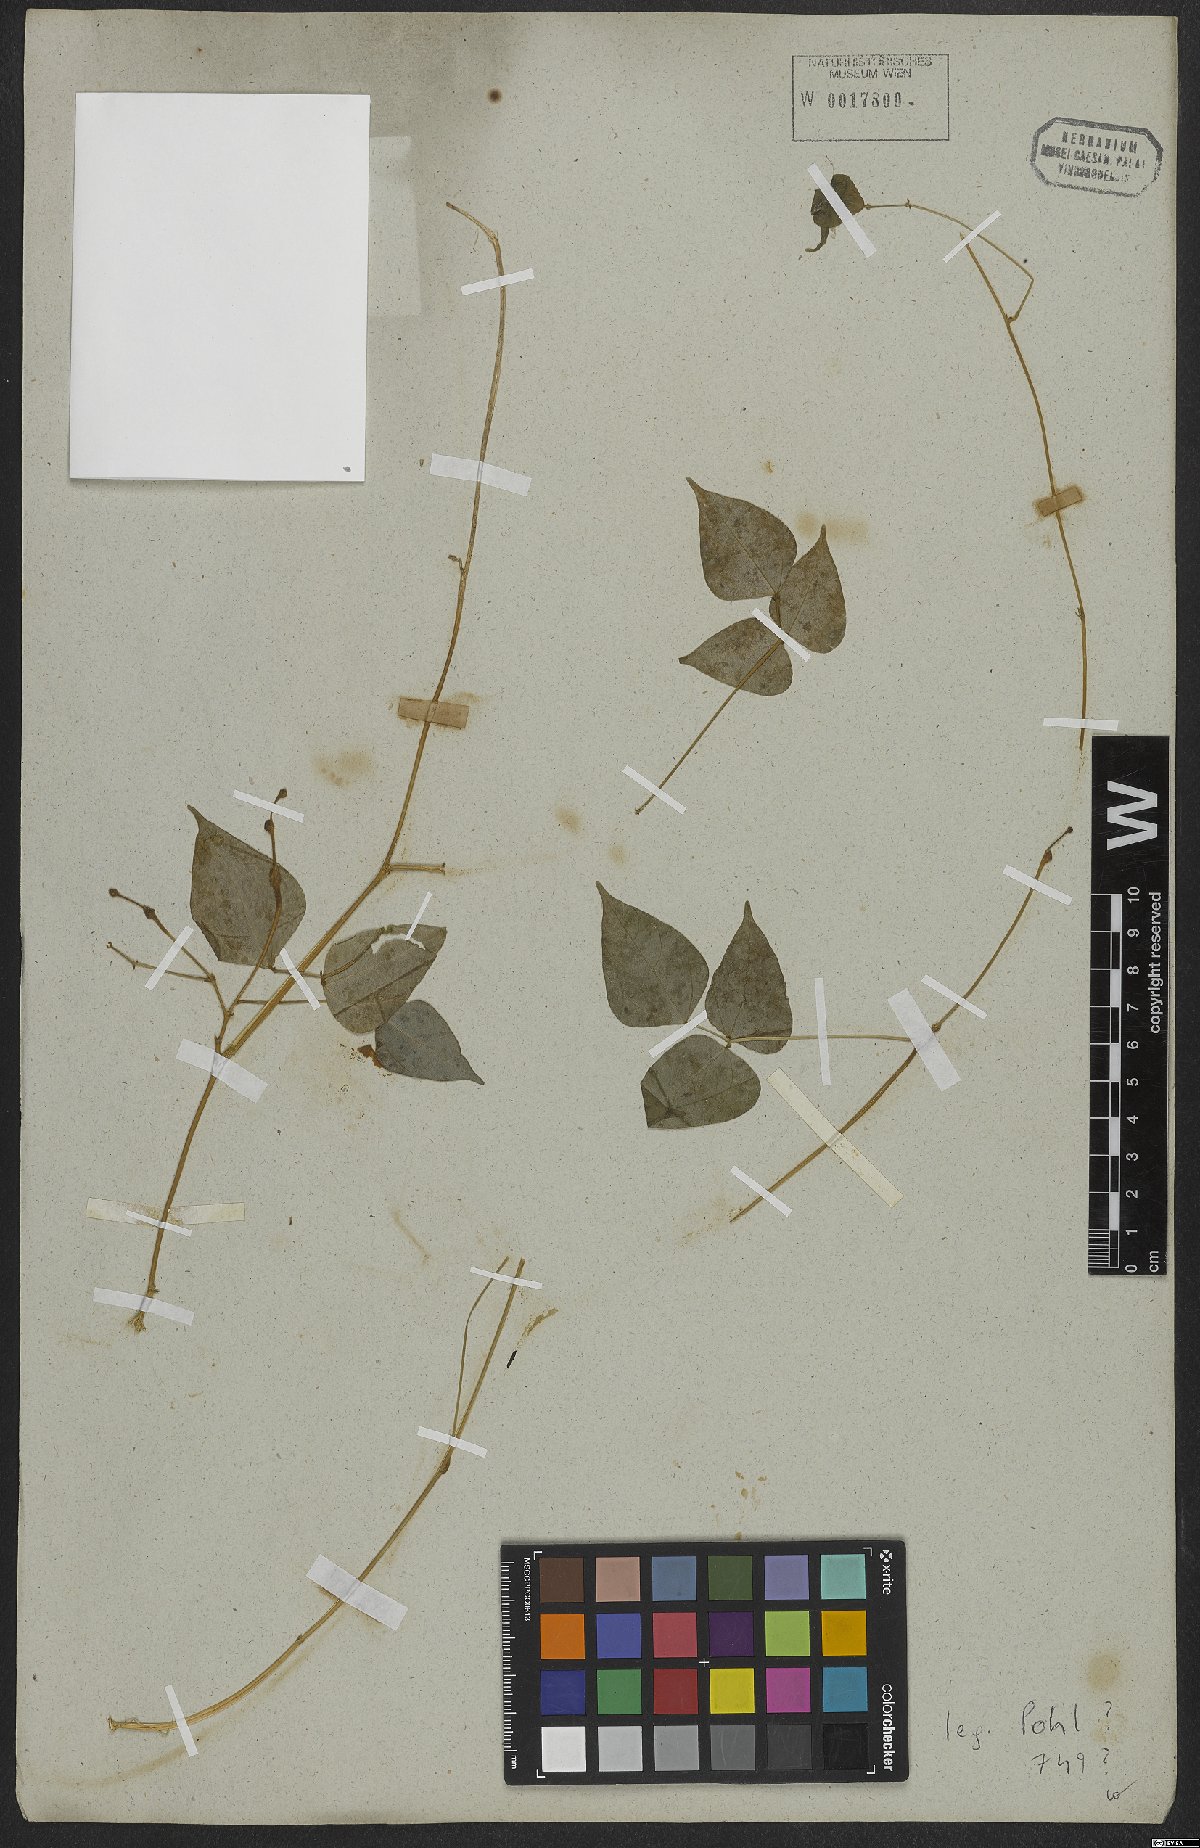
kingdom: Plantae
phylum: Tracheophyta
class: Magnoliopsida
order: Fabales
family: Fabaceae
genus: Cochliasanthus
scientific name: Cochliasanthus caracalla
